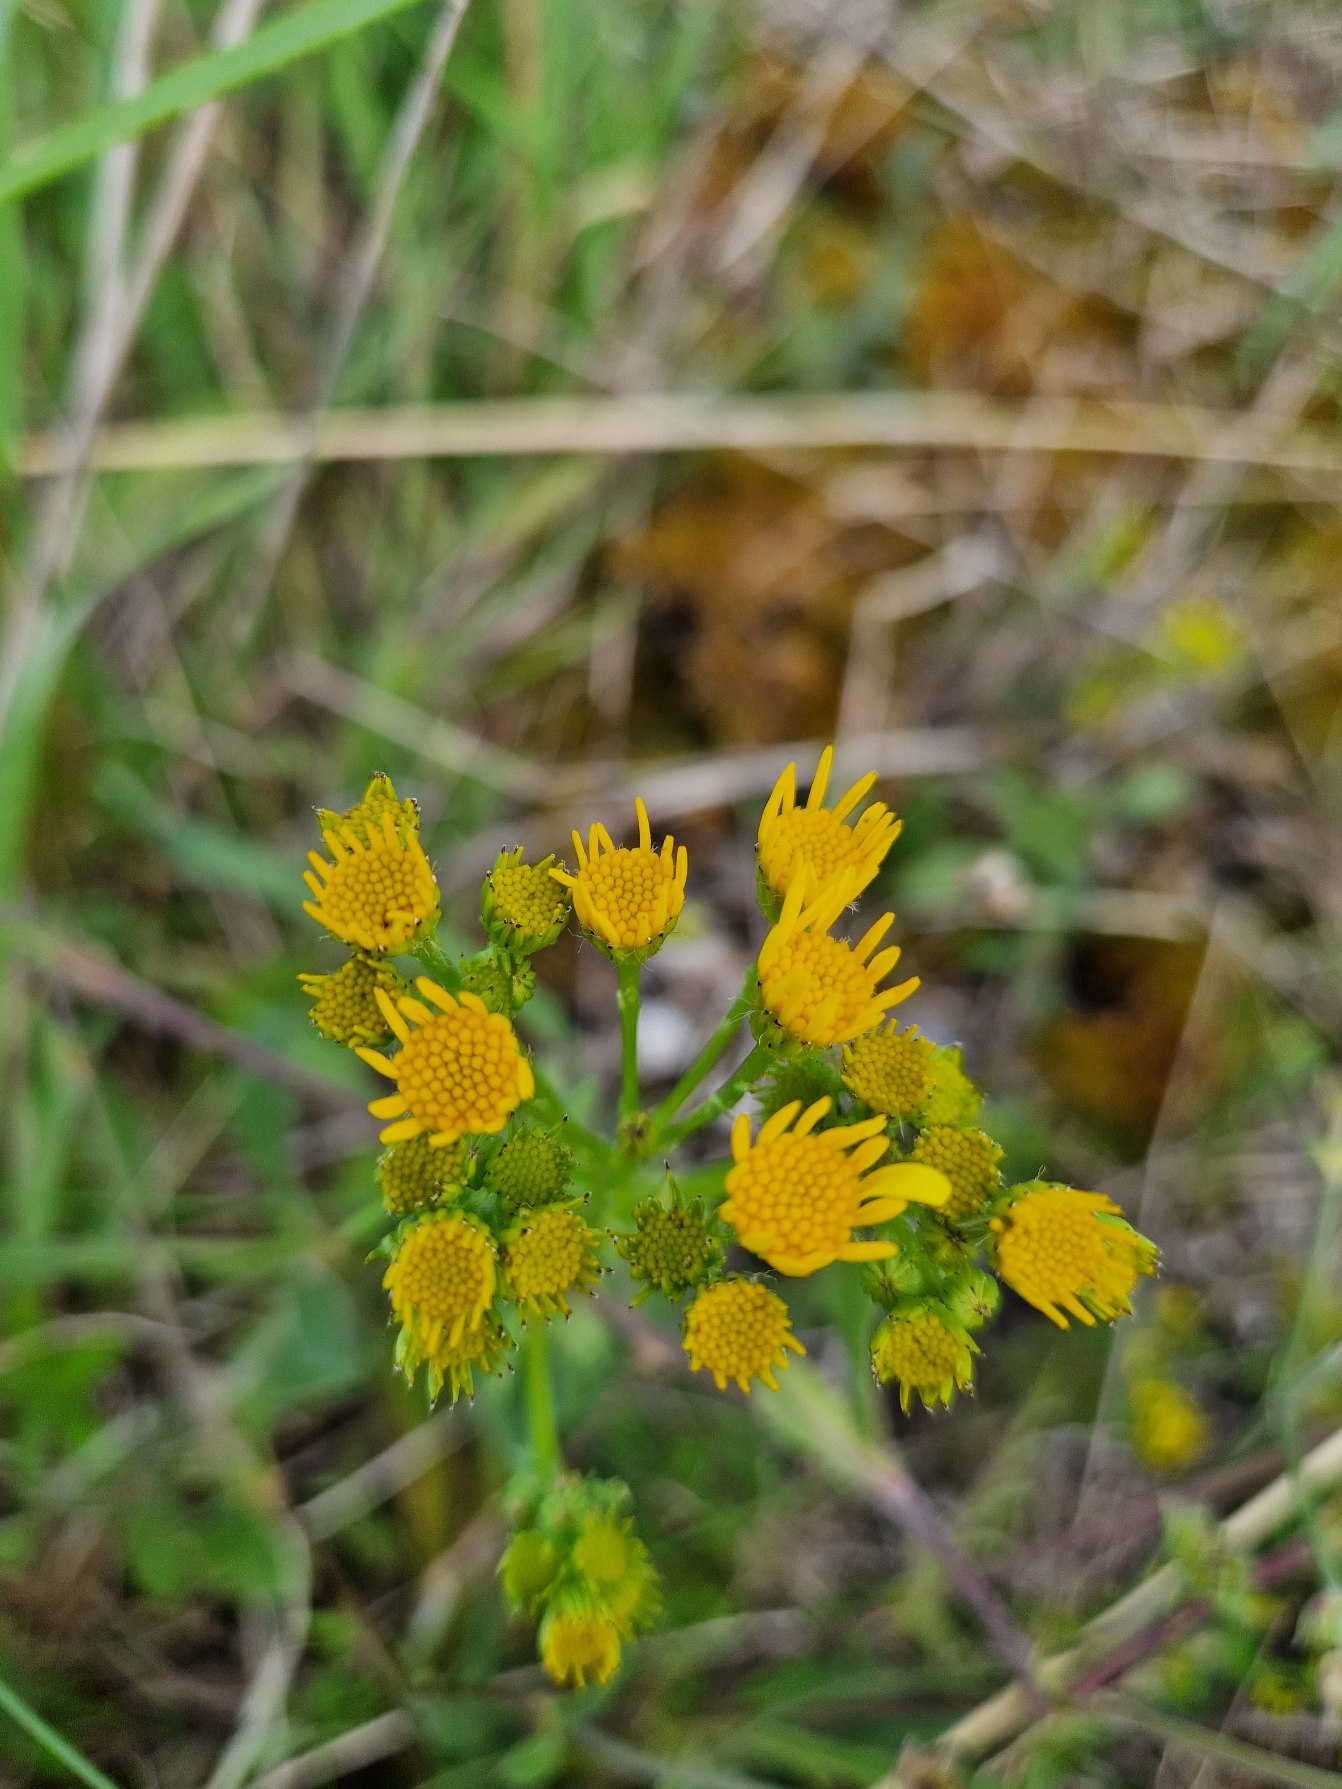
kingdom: Plantae
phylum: Tracheophyta
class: Magnoliopsida
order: Asterales
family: Asteraceae
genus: Jacobaea
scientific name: Jacobaea vulgaris
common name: Eng-brandbæger
